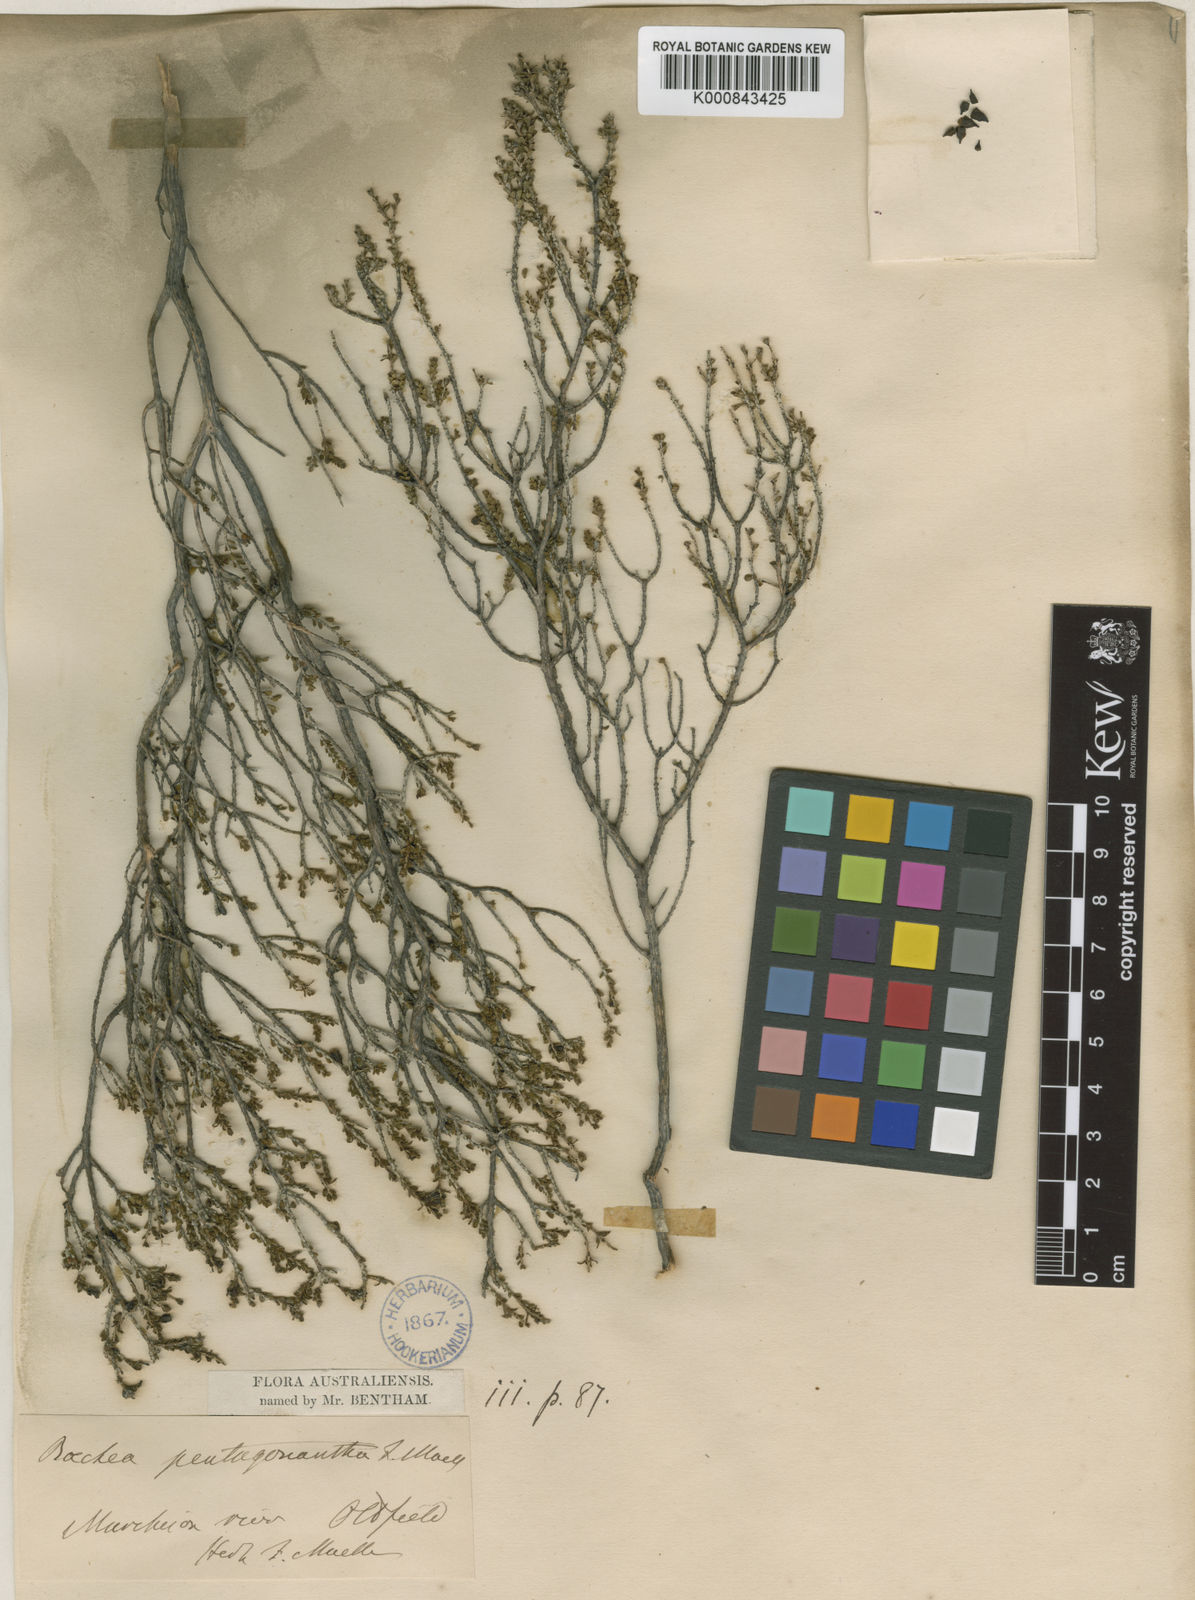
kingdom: Plantae
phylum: Tracheophyta
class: Magnoliopsida
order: Myrtales
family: Myrtaceae
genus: Baeckea
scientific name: Baeckea pentagonantha
